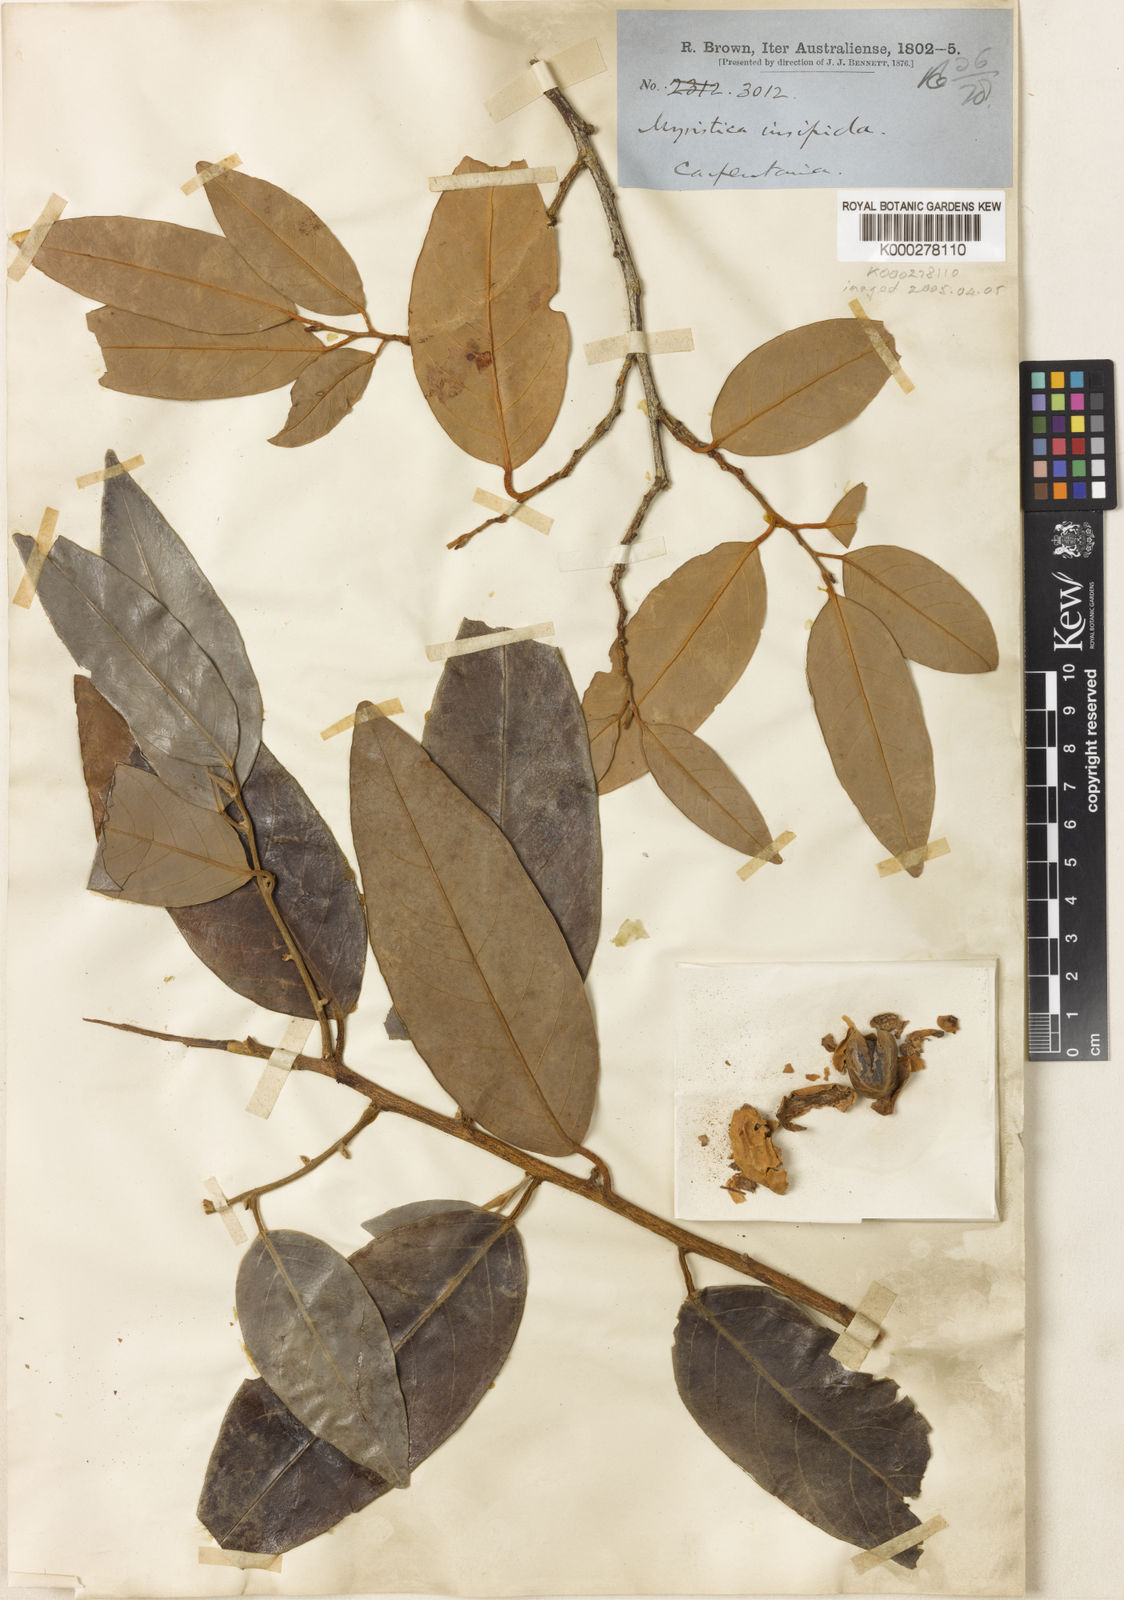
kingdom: Plantae
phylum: Tracheophyta
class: Magnoliopsida
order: Magnoliales
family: Myristicaceae
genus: Myristica
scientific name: Myristica insipida
